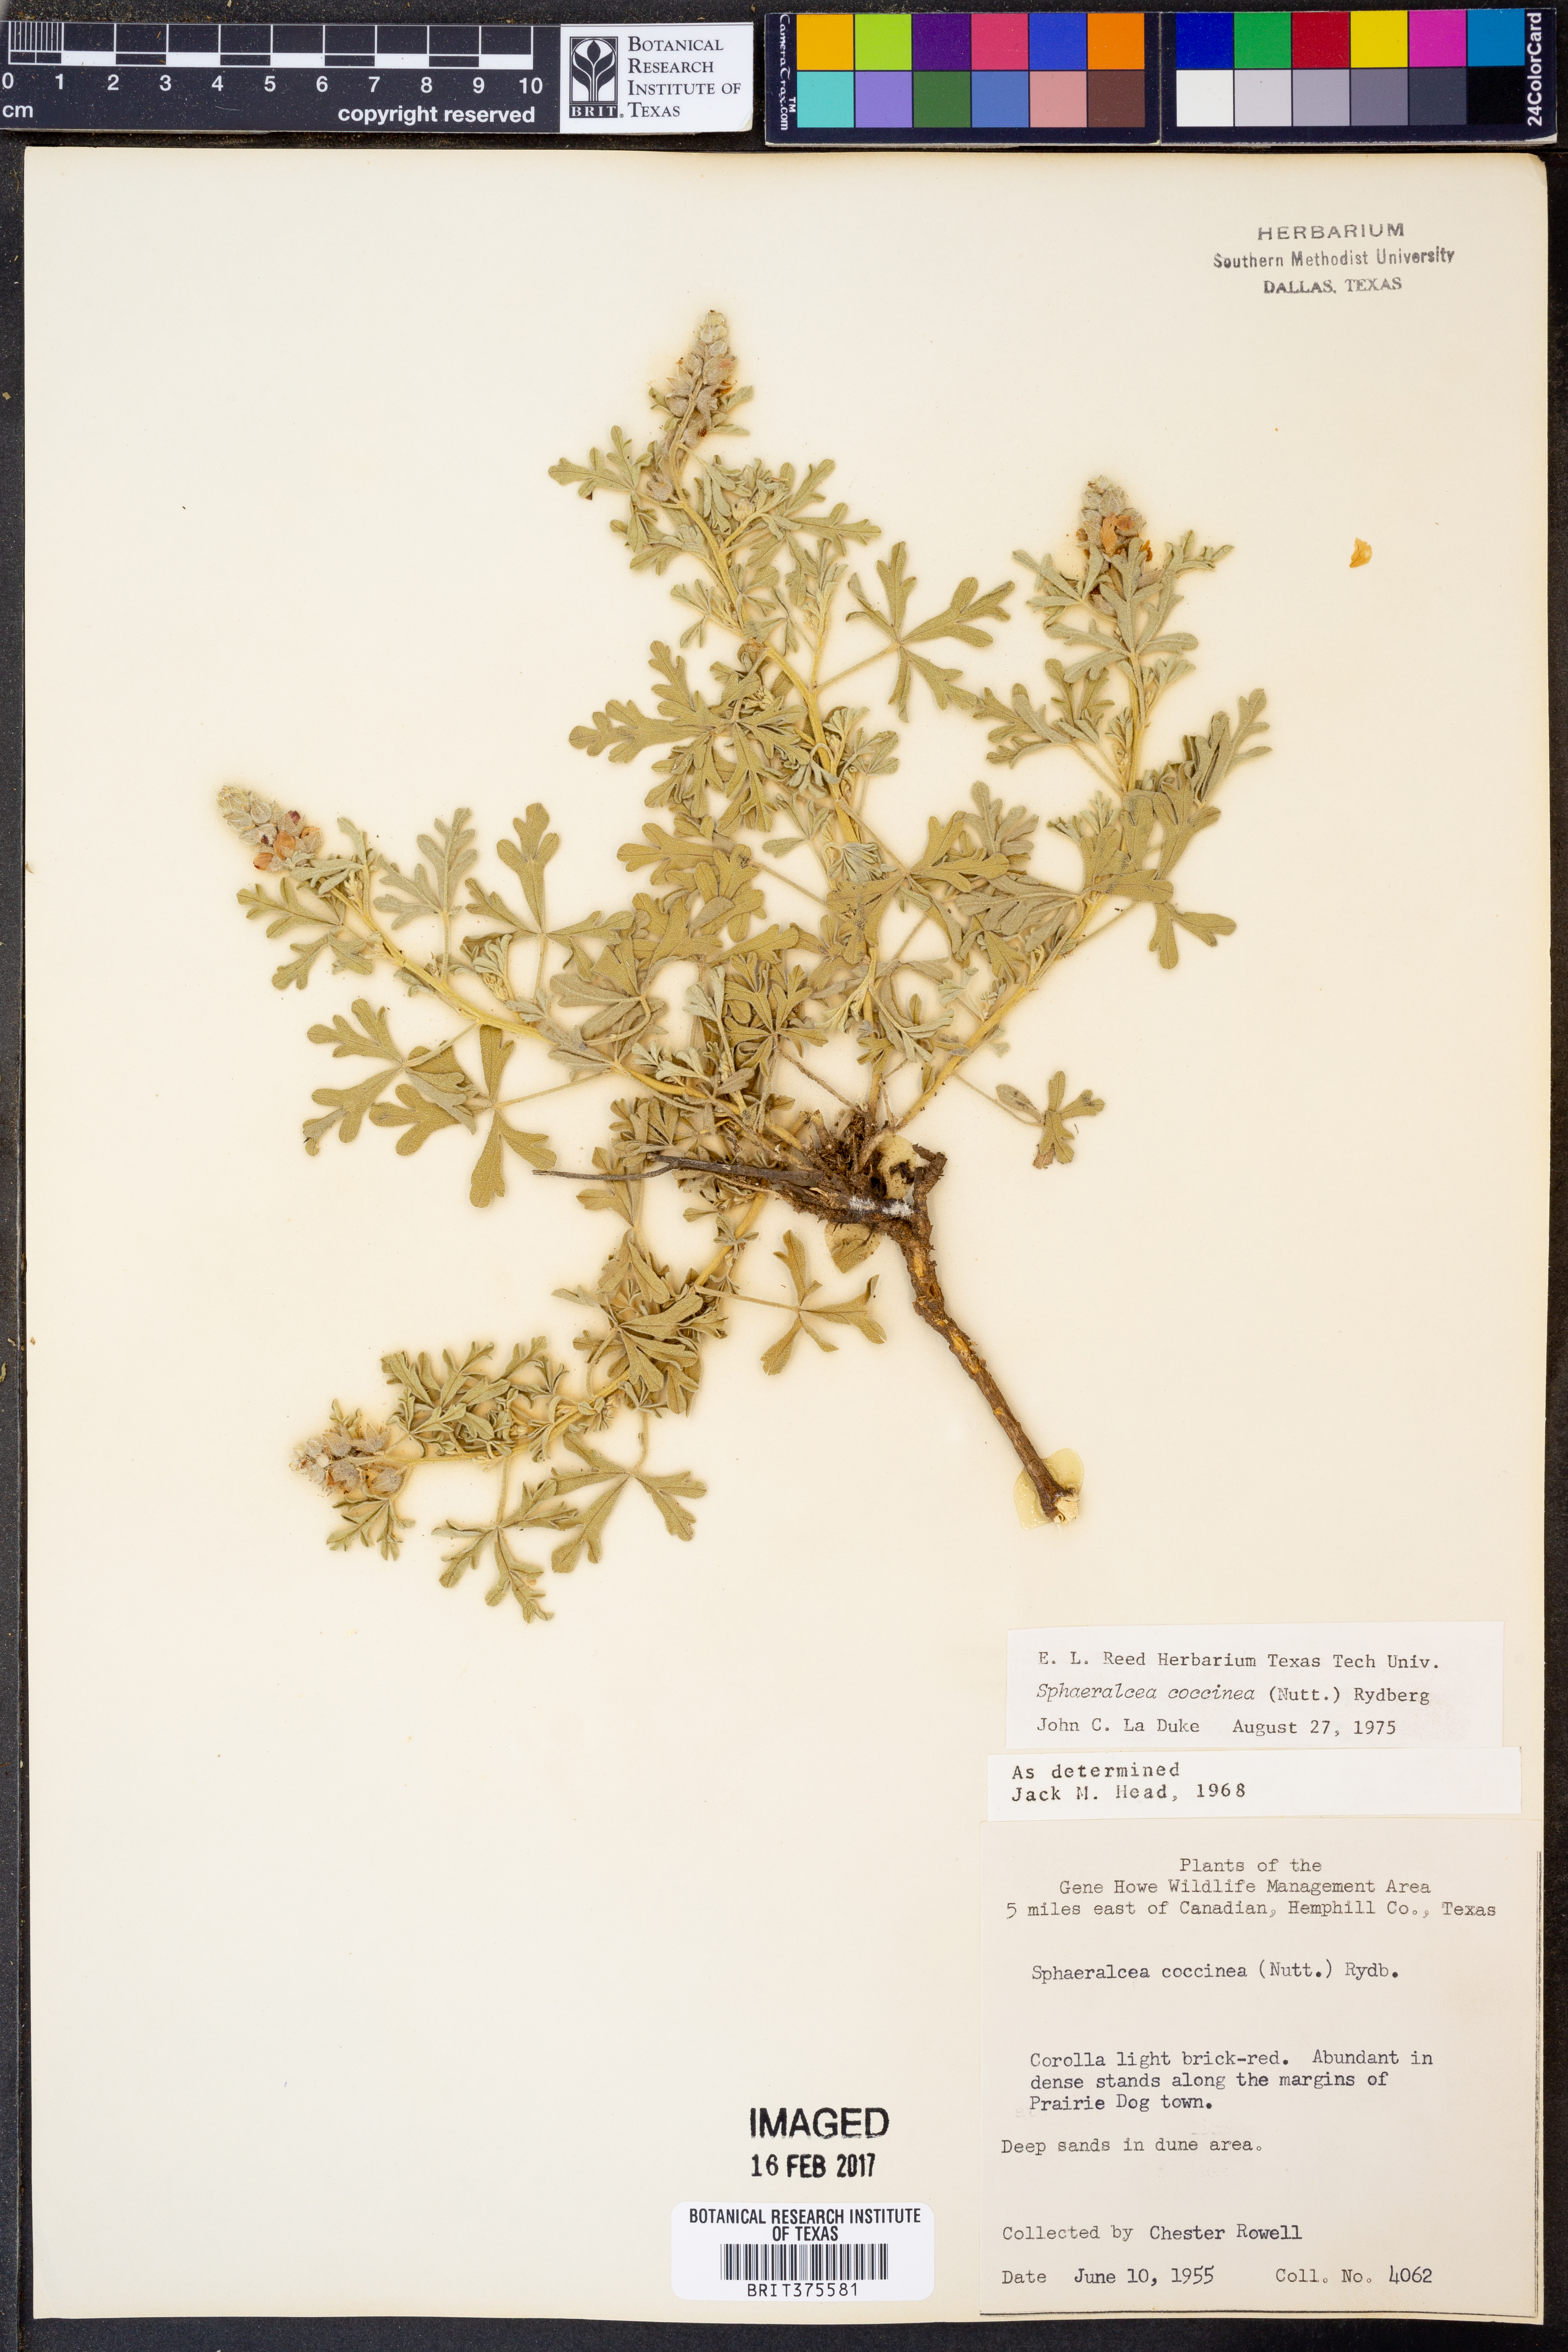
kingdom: Plantae
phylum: Tracheophyta
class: Magnoliopsida
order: Malvales
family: Malvaceae
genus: Sphaeralcea
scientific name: Sphaeralcea coccinea
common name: Moss-rose
